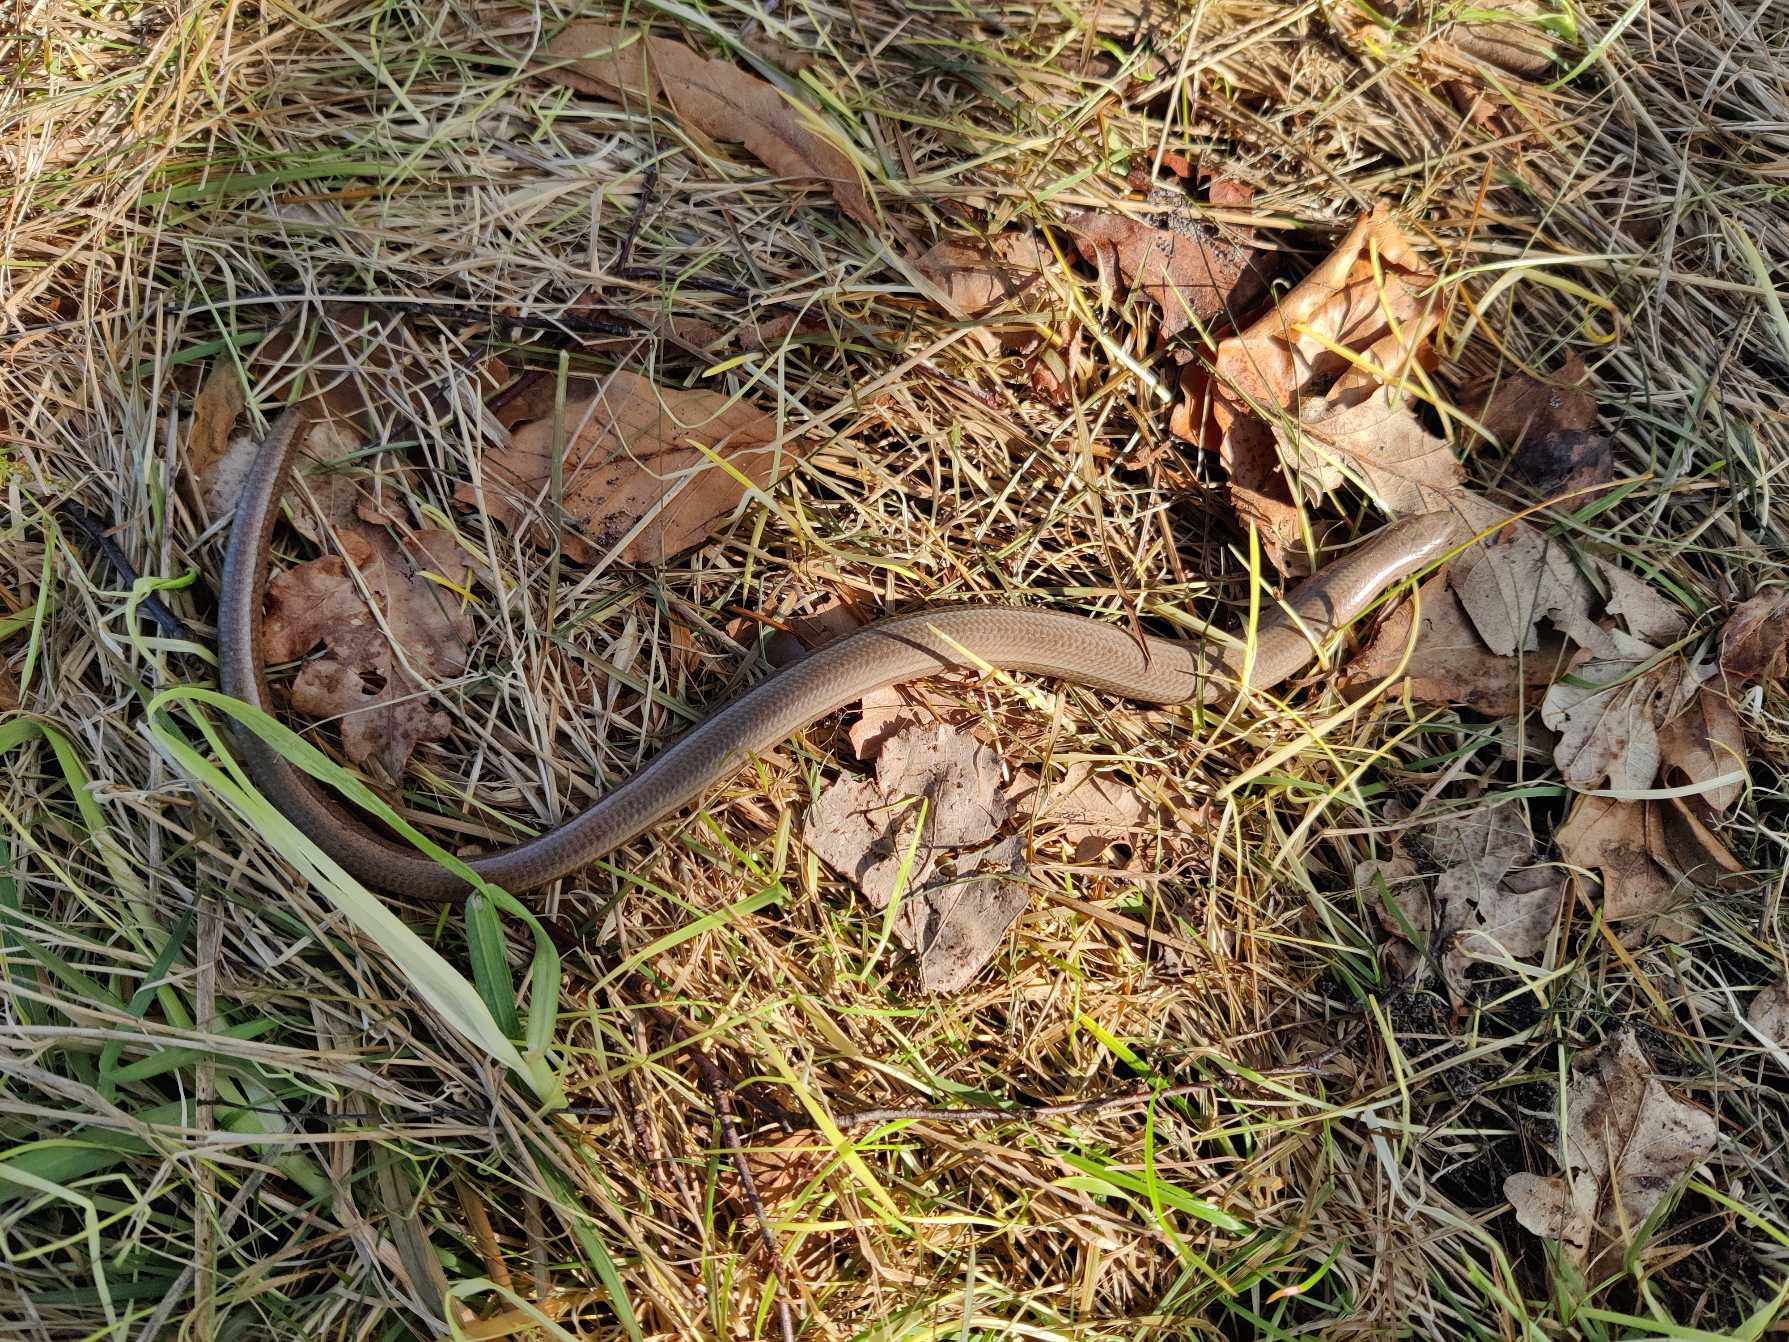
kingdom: Animalia
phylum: Chordata
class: Squamata
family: Anguidae
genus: Anguis
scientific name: Anguis fragilis
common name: Stålorm
